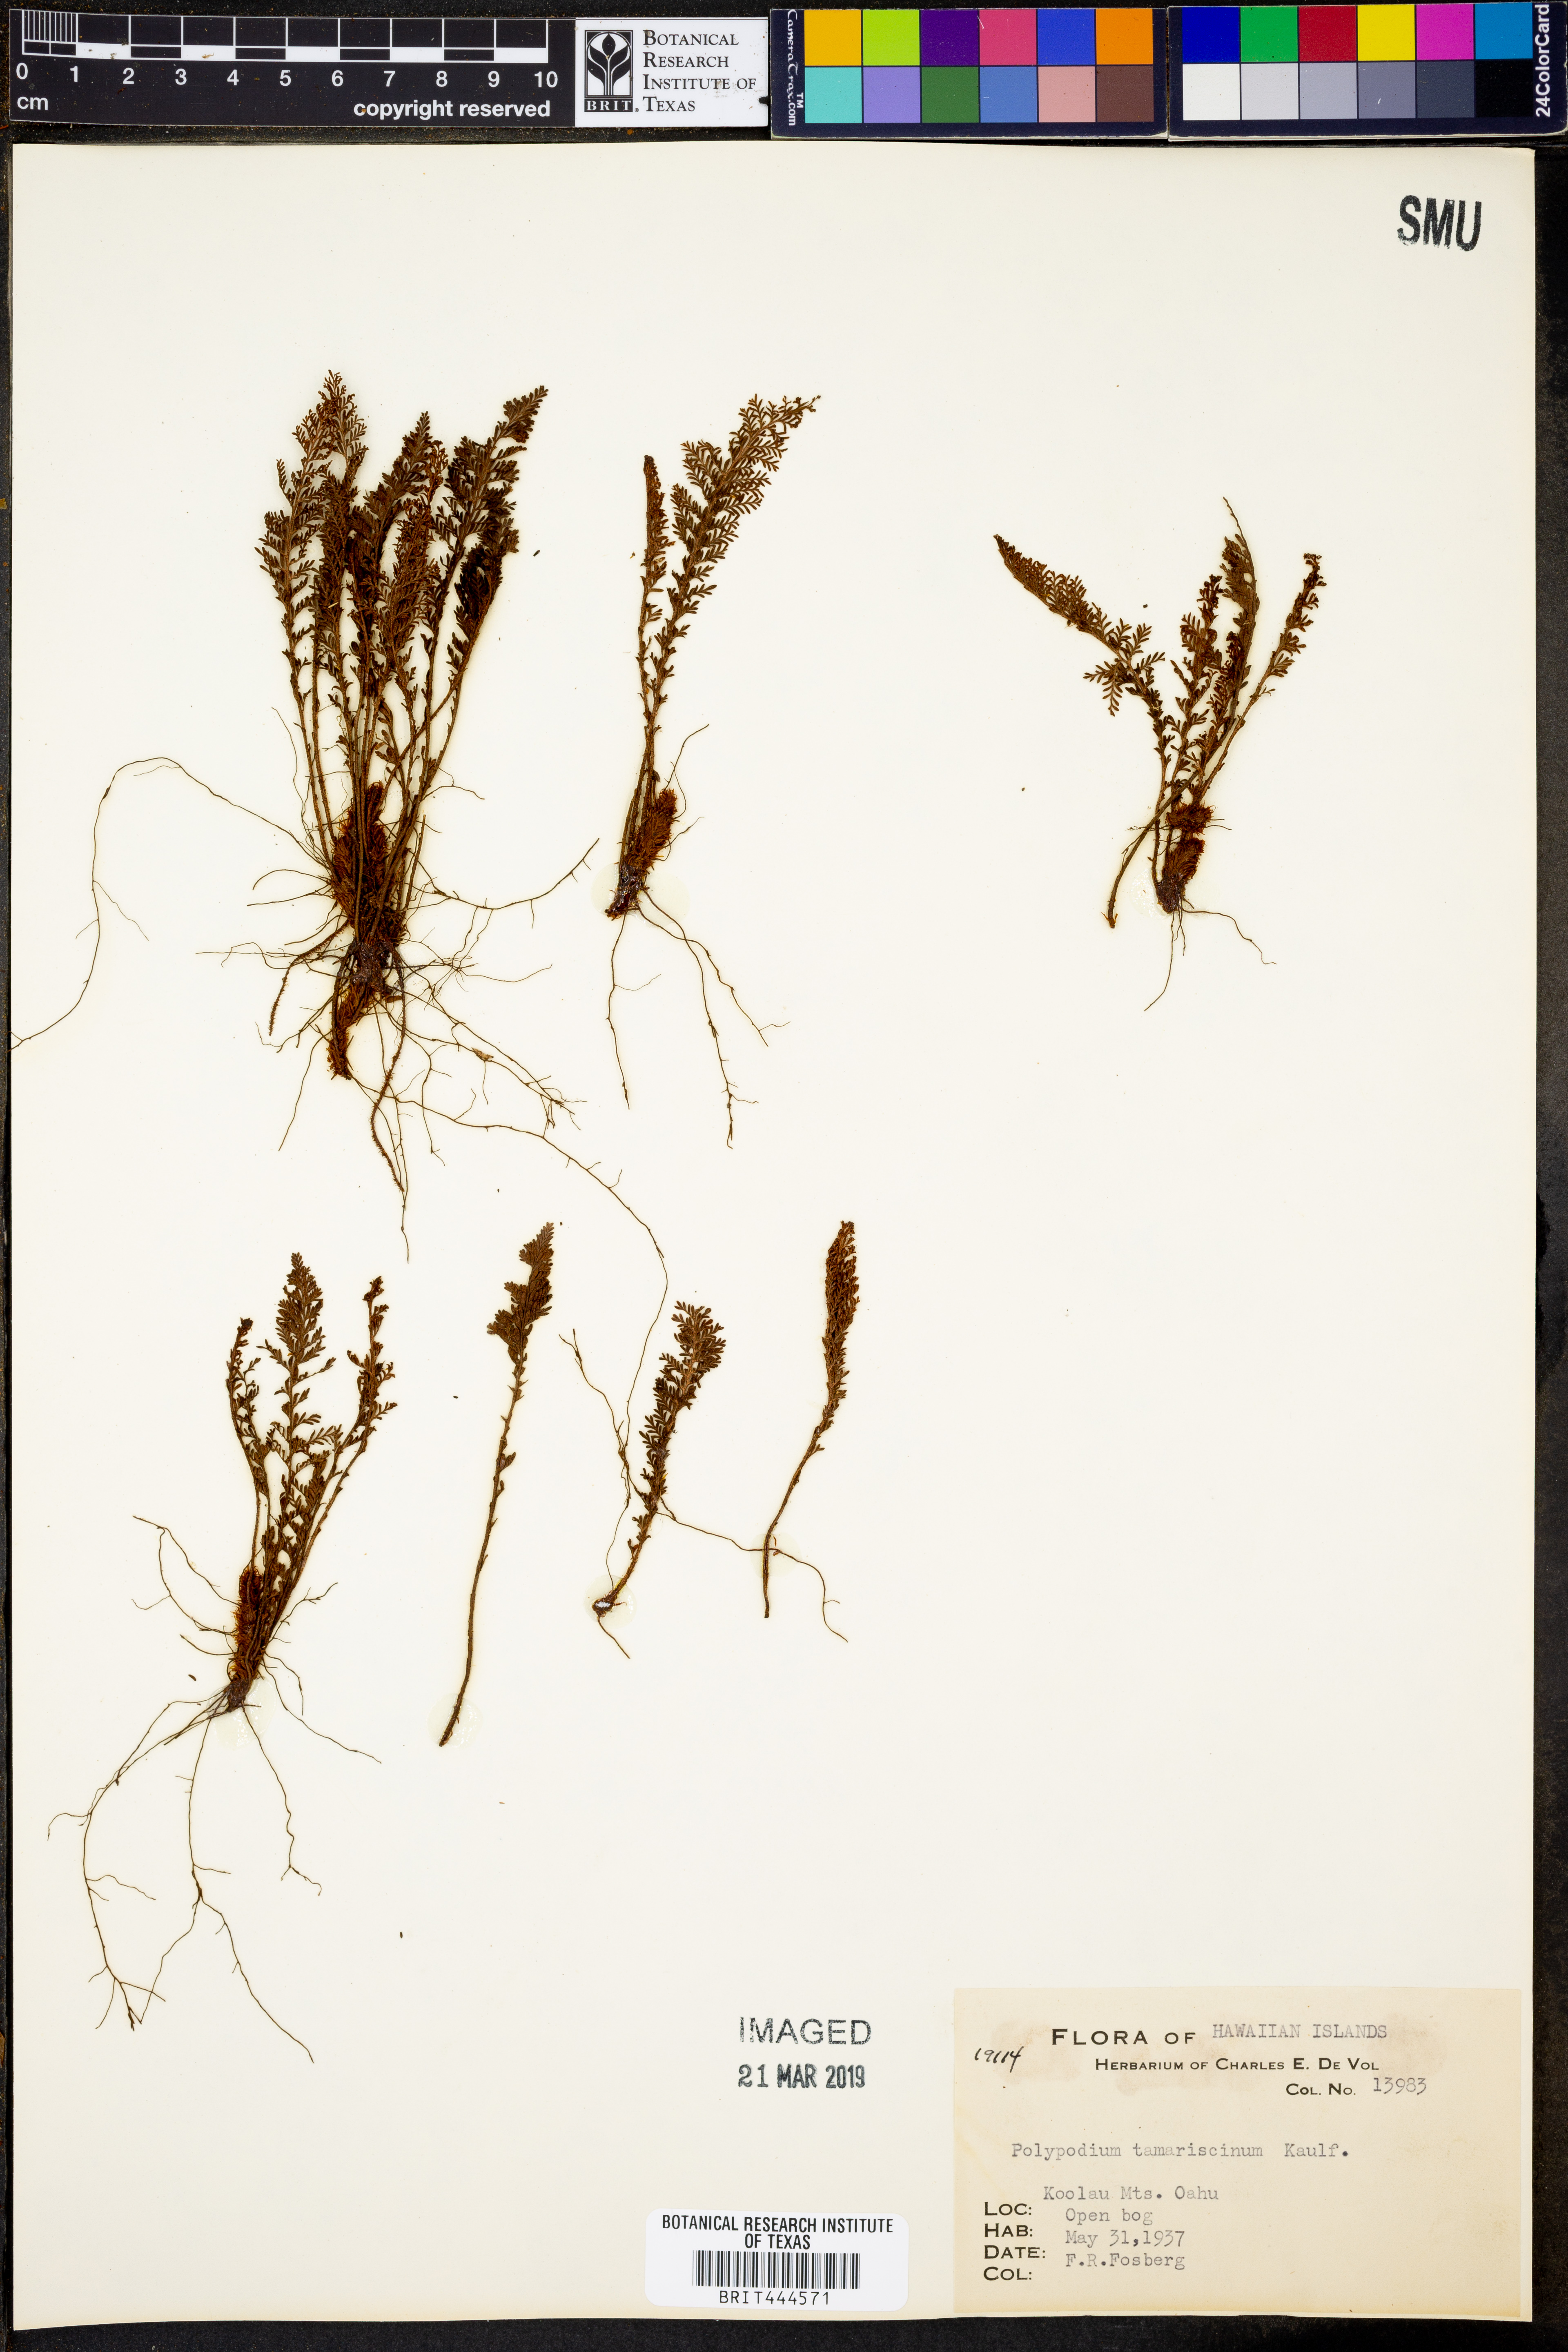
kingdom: Plantae
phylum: Tracheophyta
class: Polypodiopsida
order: Polypodiales
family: Polypodiaceae
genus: Adenophorus
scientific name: Adenophorus tamariscinus
